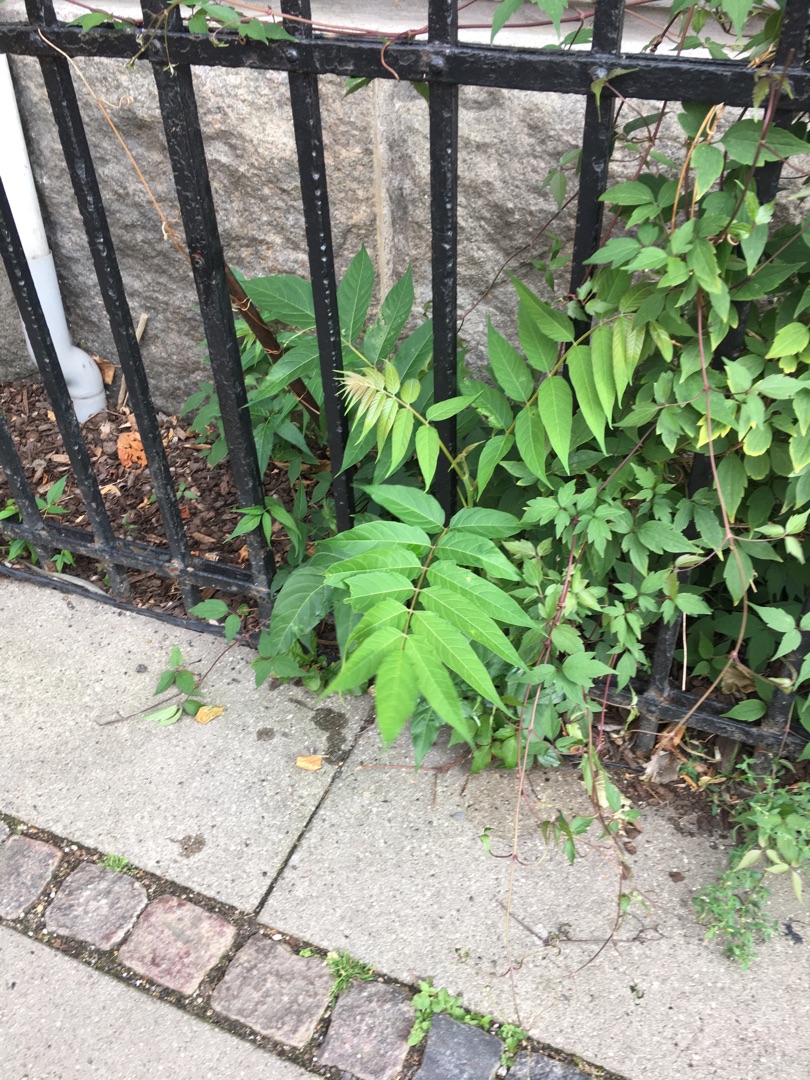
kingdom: Plantae
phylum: Tracheophyta
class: Magnoliopsida
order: Sapindales
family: Simaroubaceae
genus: Ailanthus
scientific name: Ailanthus altissima
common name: Skyrækker
